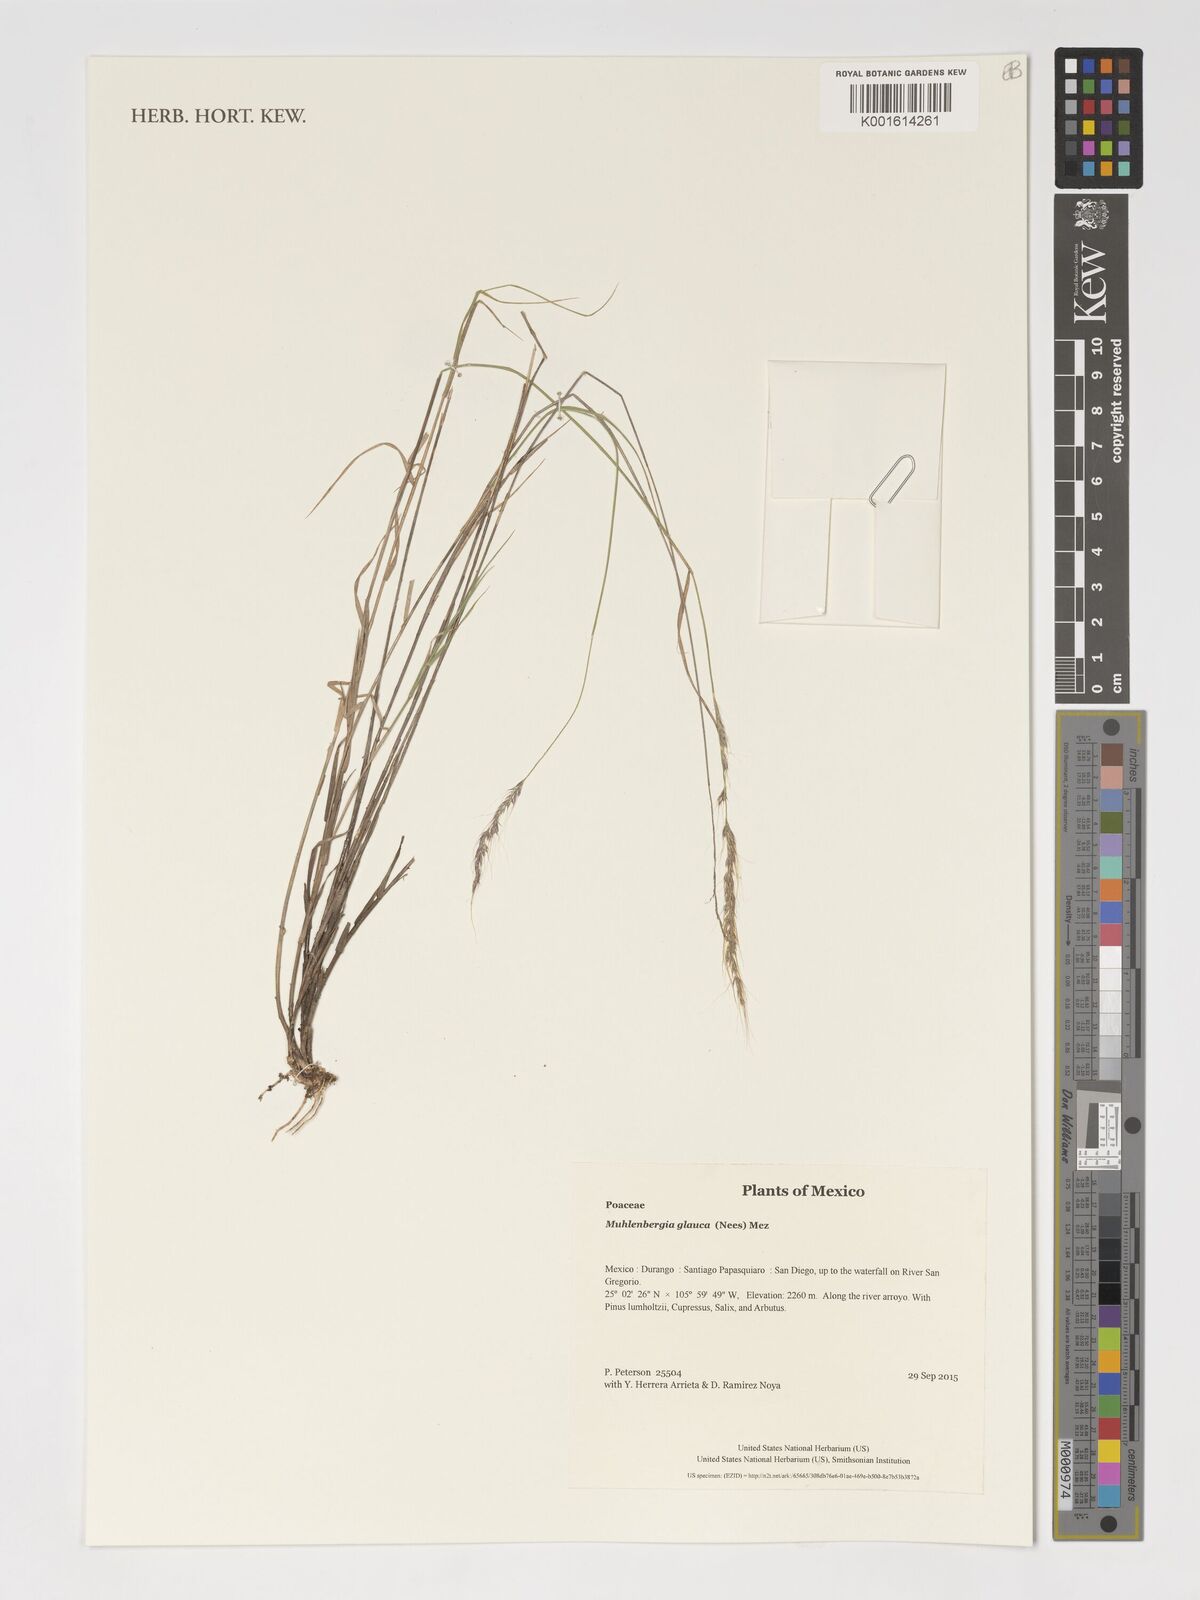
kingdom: Plantae
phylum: Tracheophyta
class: Liliopsida
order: Poales
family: Poaceae
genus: Muhlenbergia
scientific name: Muhlenbergia glauca
